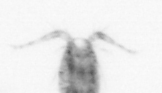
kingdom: Animalia
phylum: Arthropoda
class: Copepoda
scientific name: Copepoda
